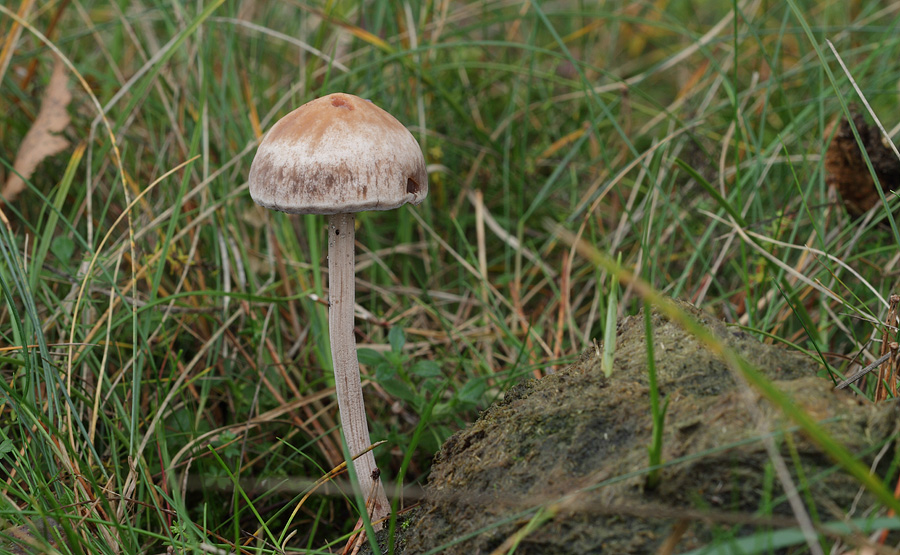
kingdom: Fungi
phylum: Basidiomycota
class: Agaricomycetes
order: Agaricales
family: Bolbitiaceae
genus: Panaeolus
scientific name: Panaeolus subfirmus
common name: fælled-glanshat
